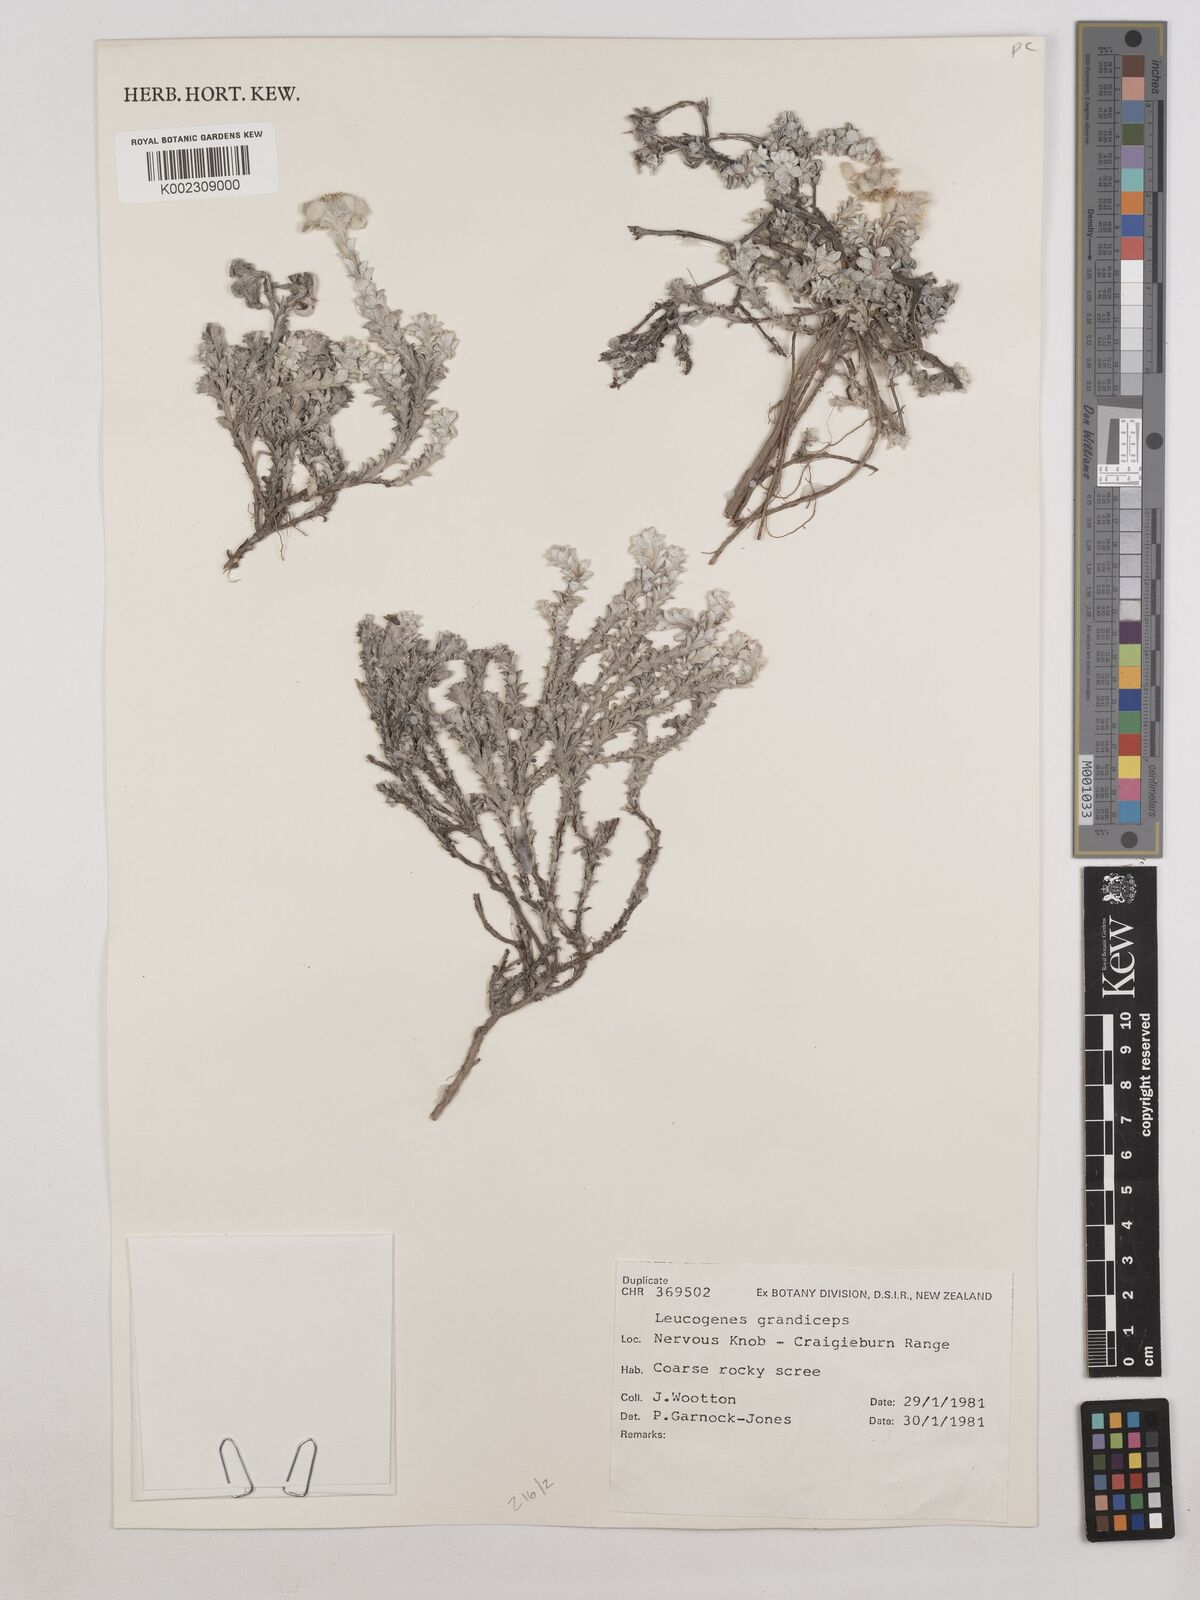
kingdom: Plantae
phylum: Tracheophyta
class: Magnoliopsida
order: Asterales
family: Asteraceae
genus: Leucogenes
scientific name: Leucogenes grandiceps
